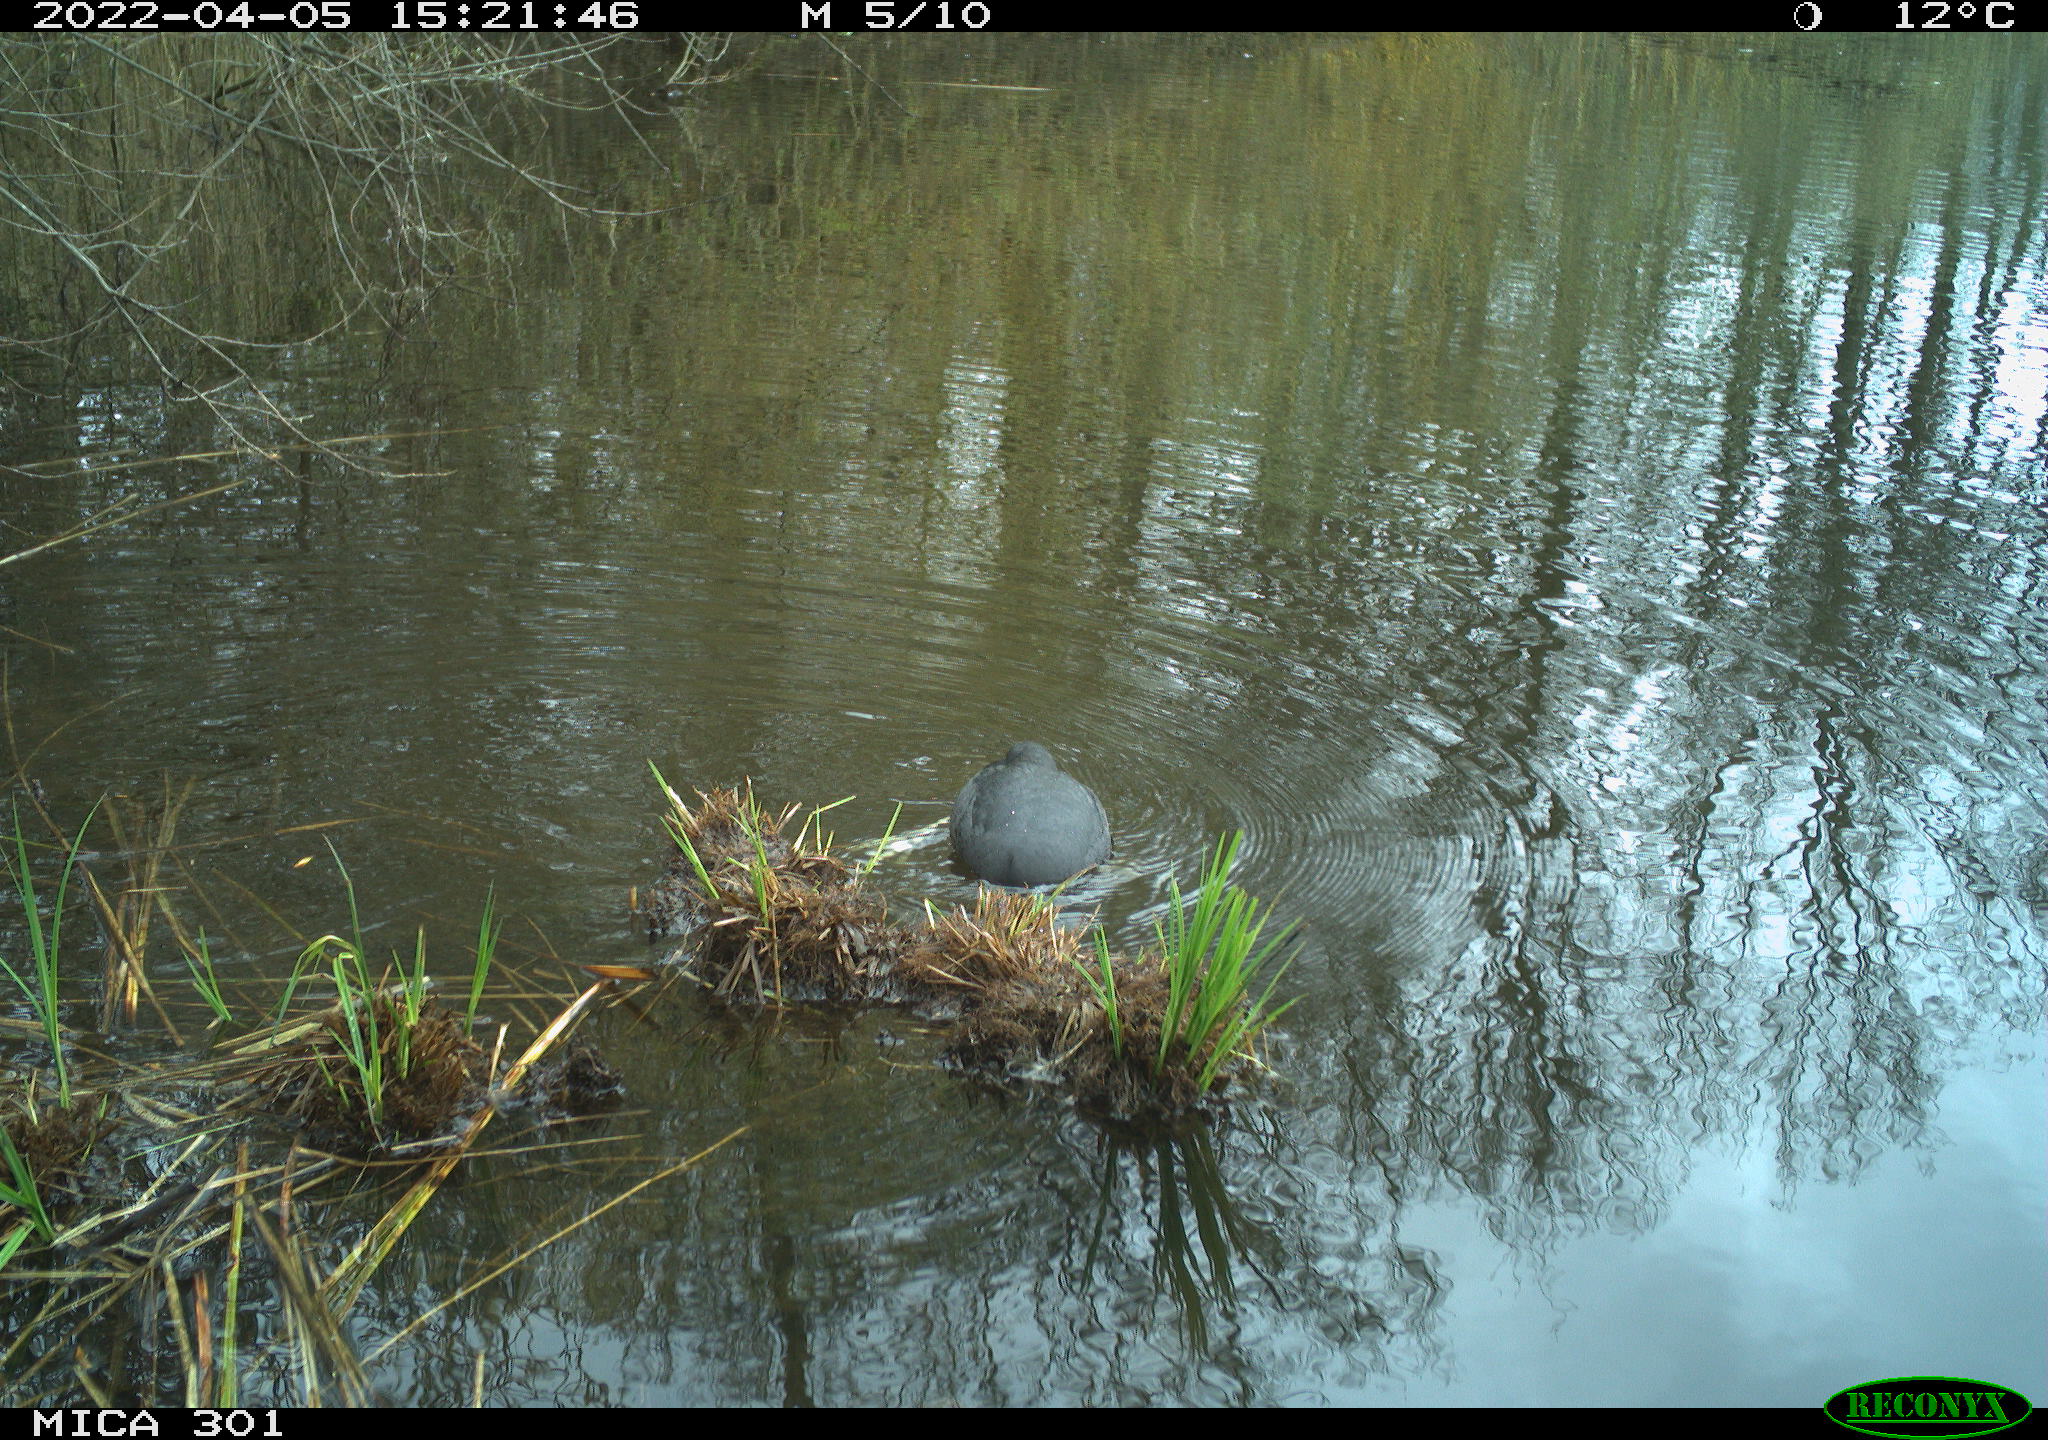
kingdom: Animalia
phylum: Chordata
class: Aves
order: Gruiformes
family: Rallidae
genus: Fulica
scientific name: Fulica atra
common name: Eurasian coot
